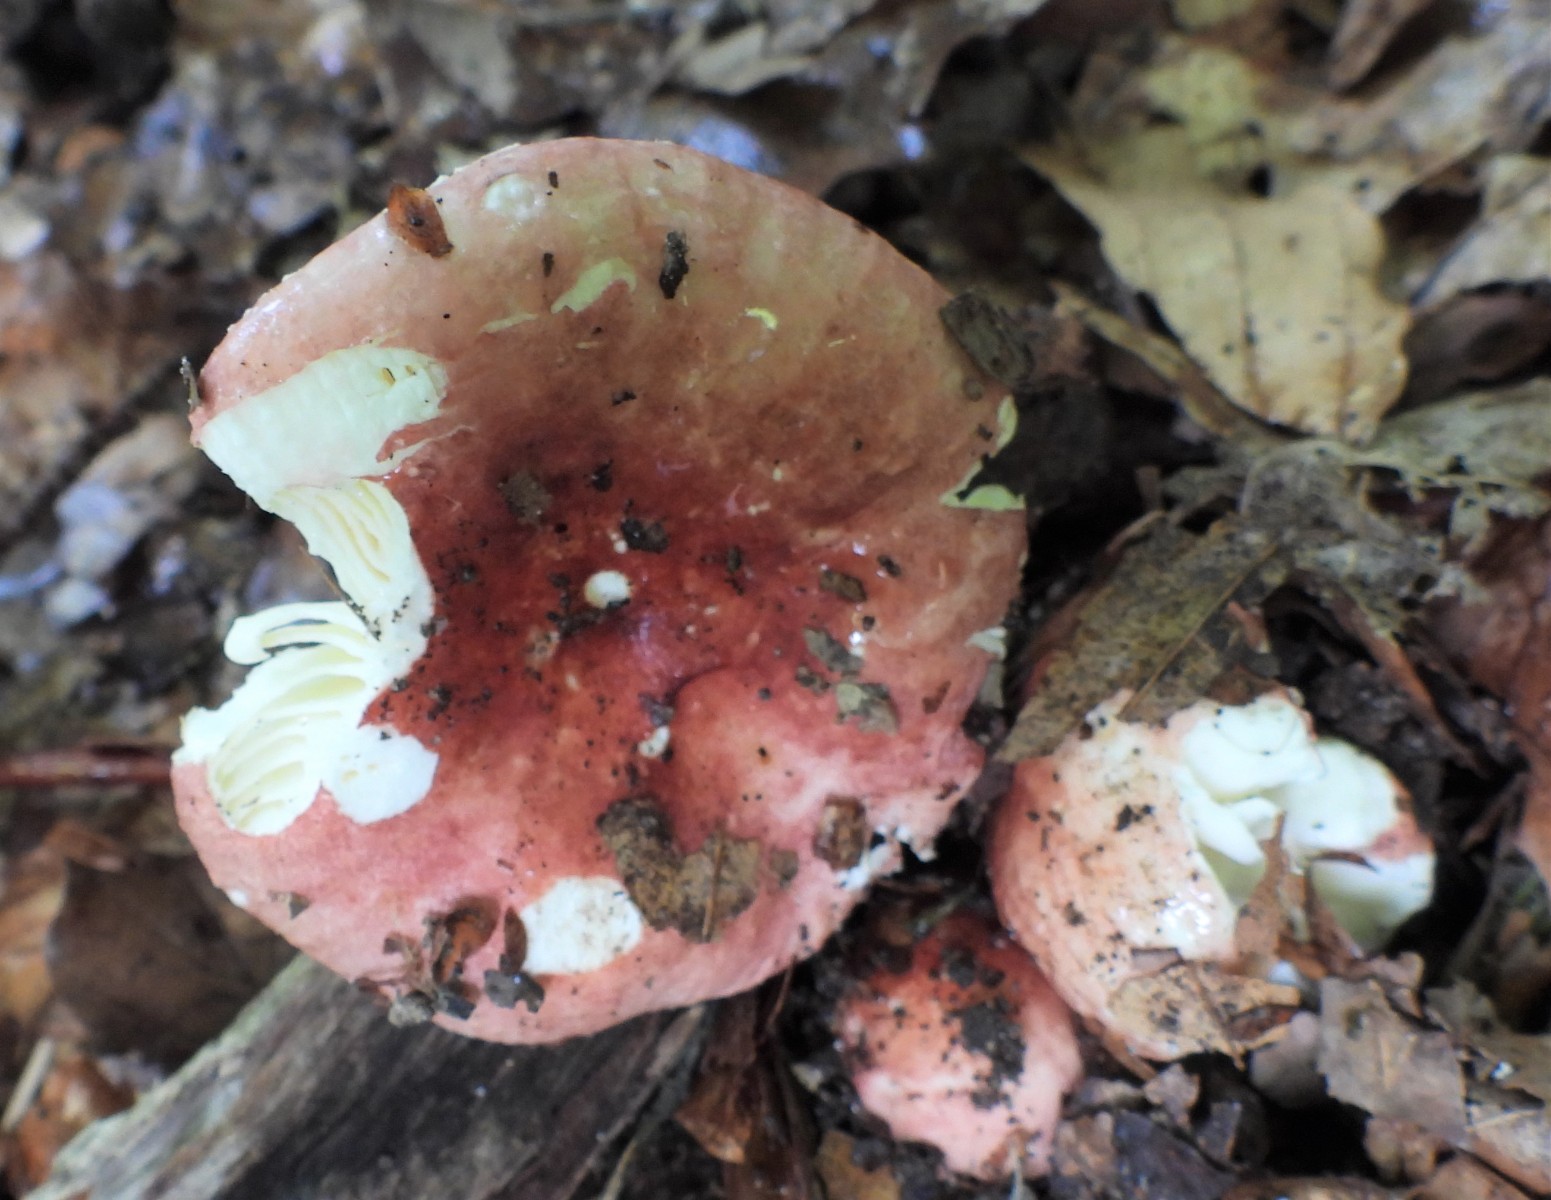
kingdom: Fungi
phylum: Basidiomycota
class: Agaricomycetes
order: Russulales
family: Russulaceae
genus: Russula
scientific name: Russula nobilis
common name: lille gift-skørhat
